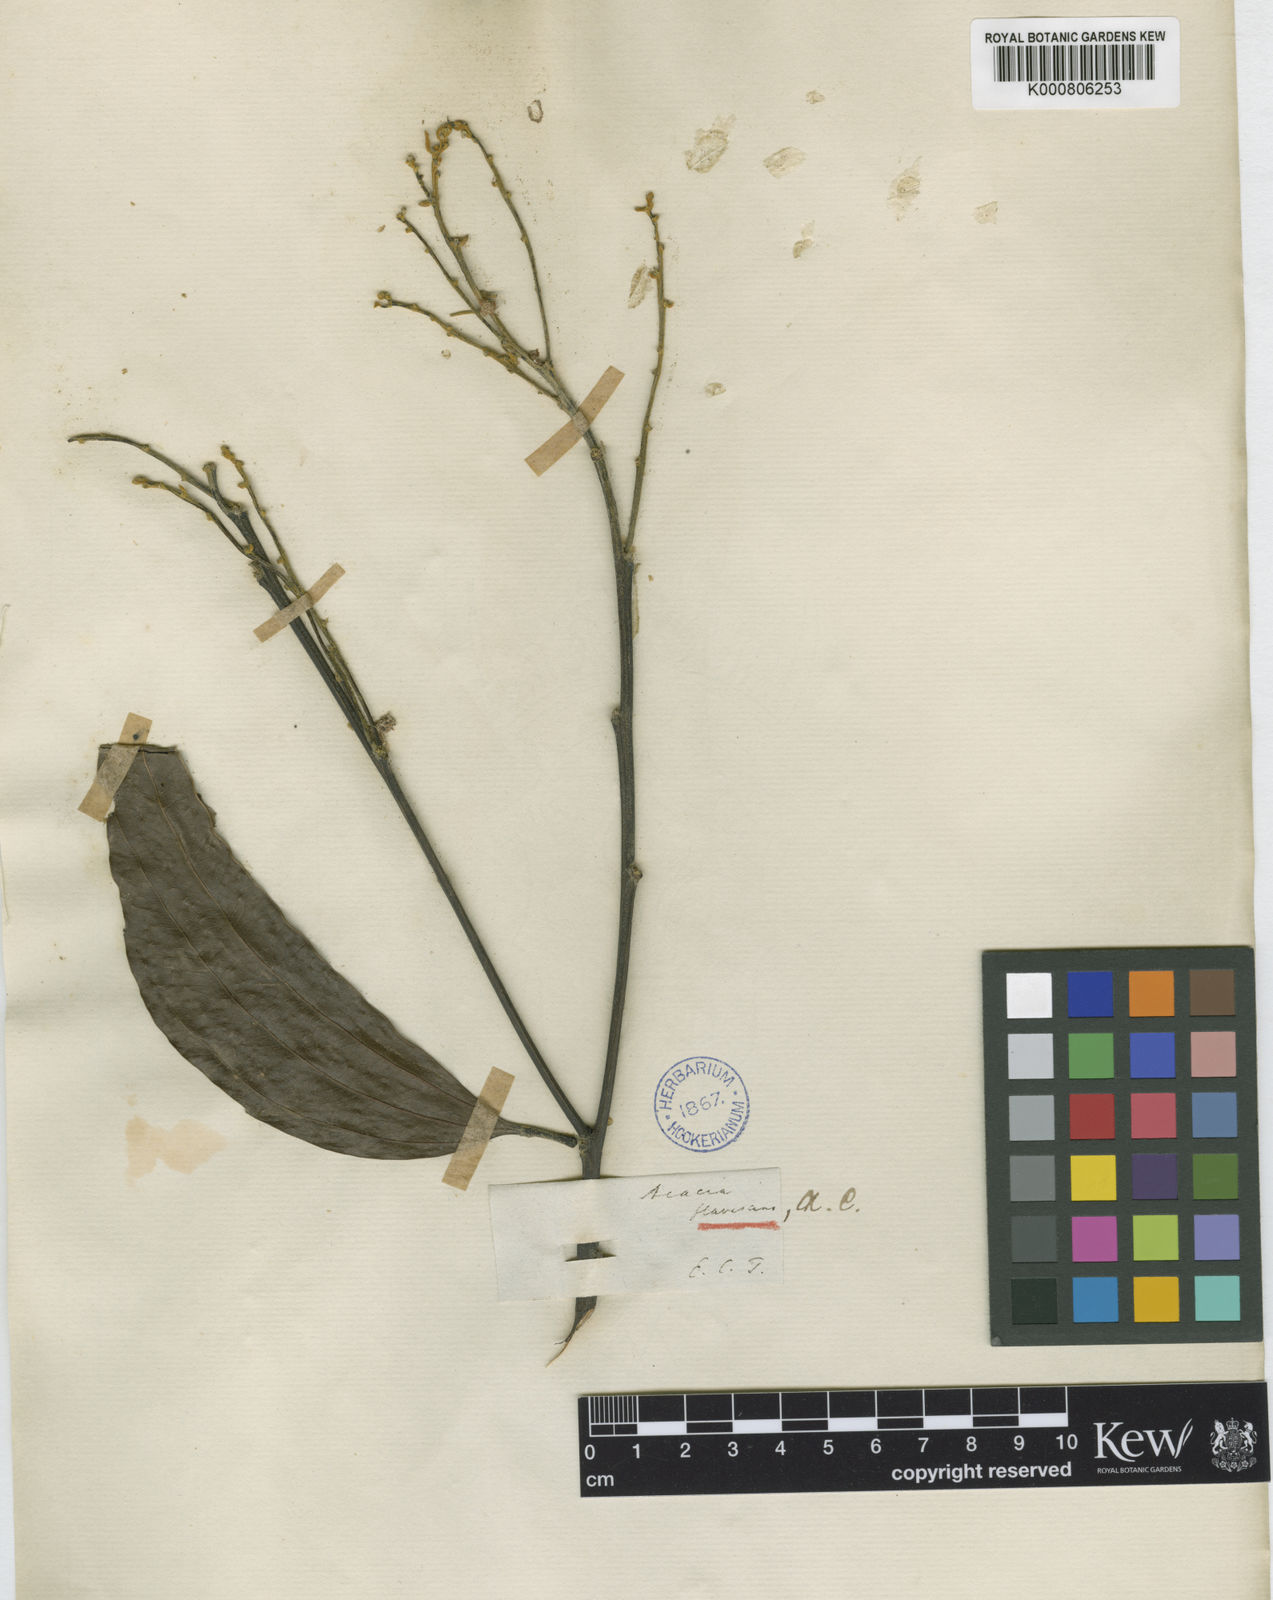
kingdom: Plantae
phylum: Tracheophyta
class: Magnoliopsida
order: Fabales
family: Fabaceae
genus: Acacia
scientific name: Acacia
